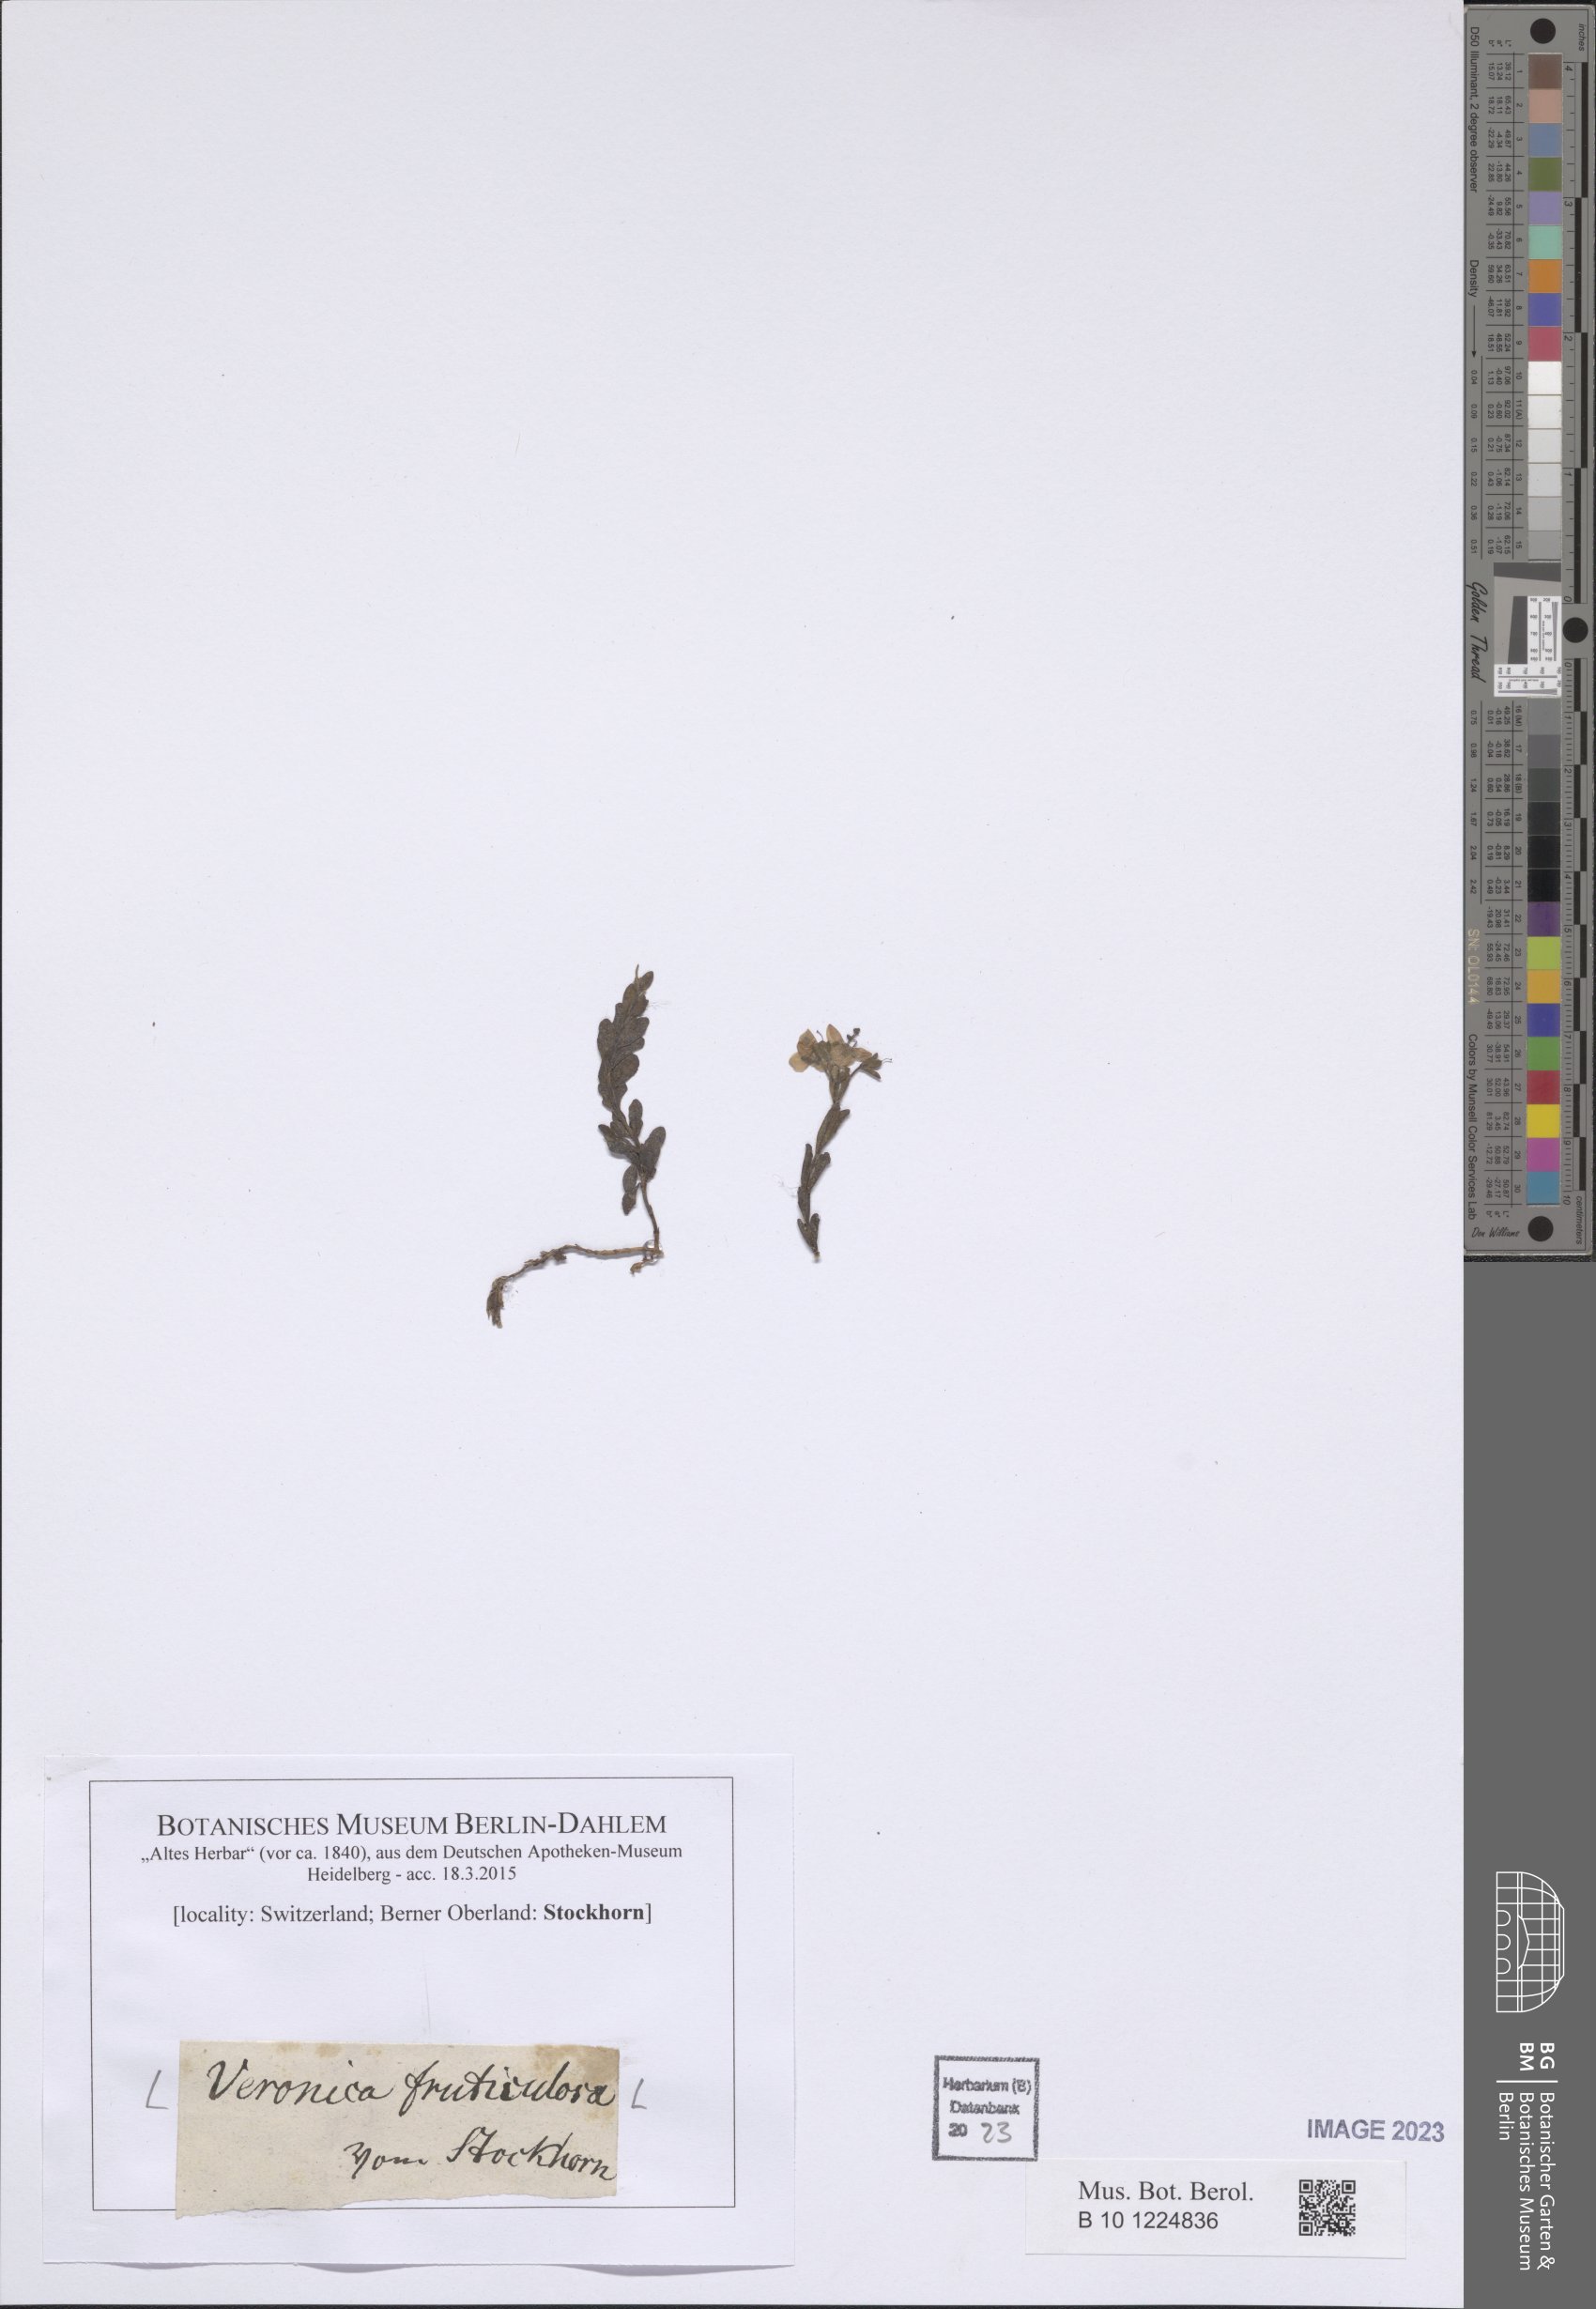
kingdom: Plantae
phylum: Tracheophyta
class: Magnoliopsida
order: Lamiales
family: Plantaginaceae
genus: Veronica
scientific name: Veronica fruticulosa
